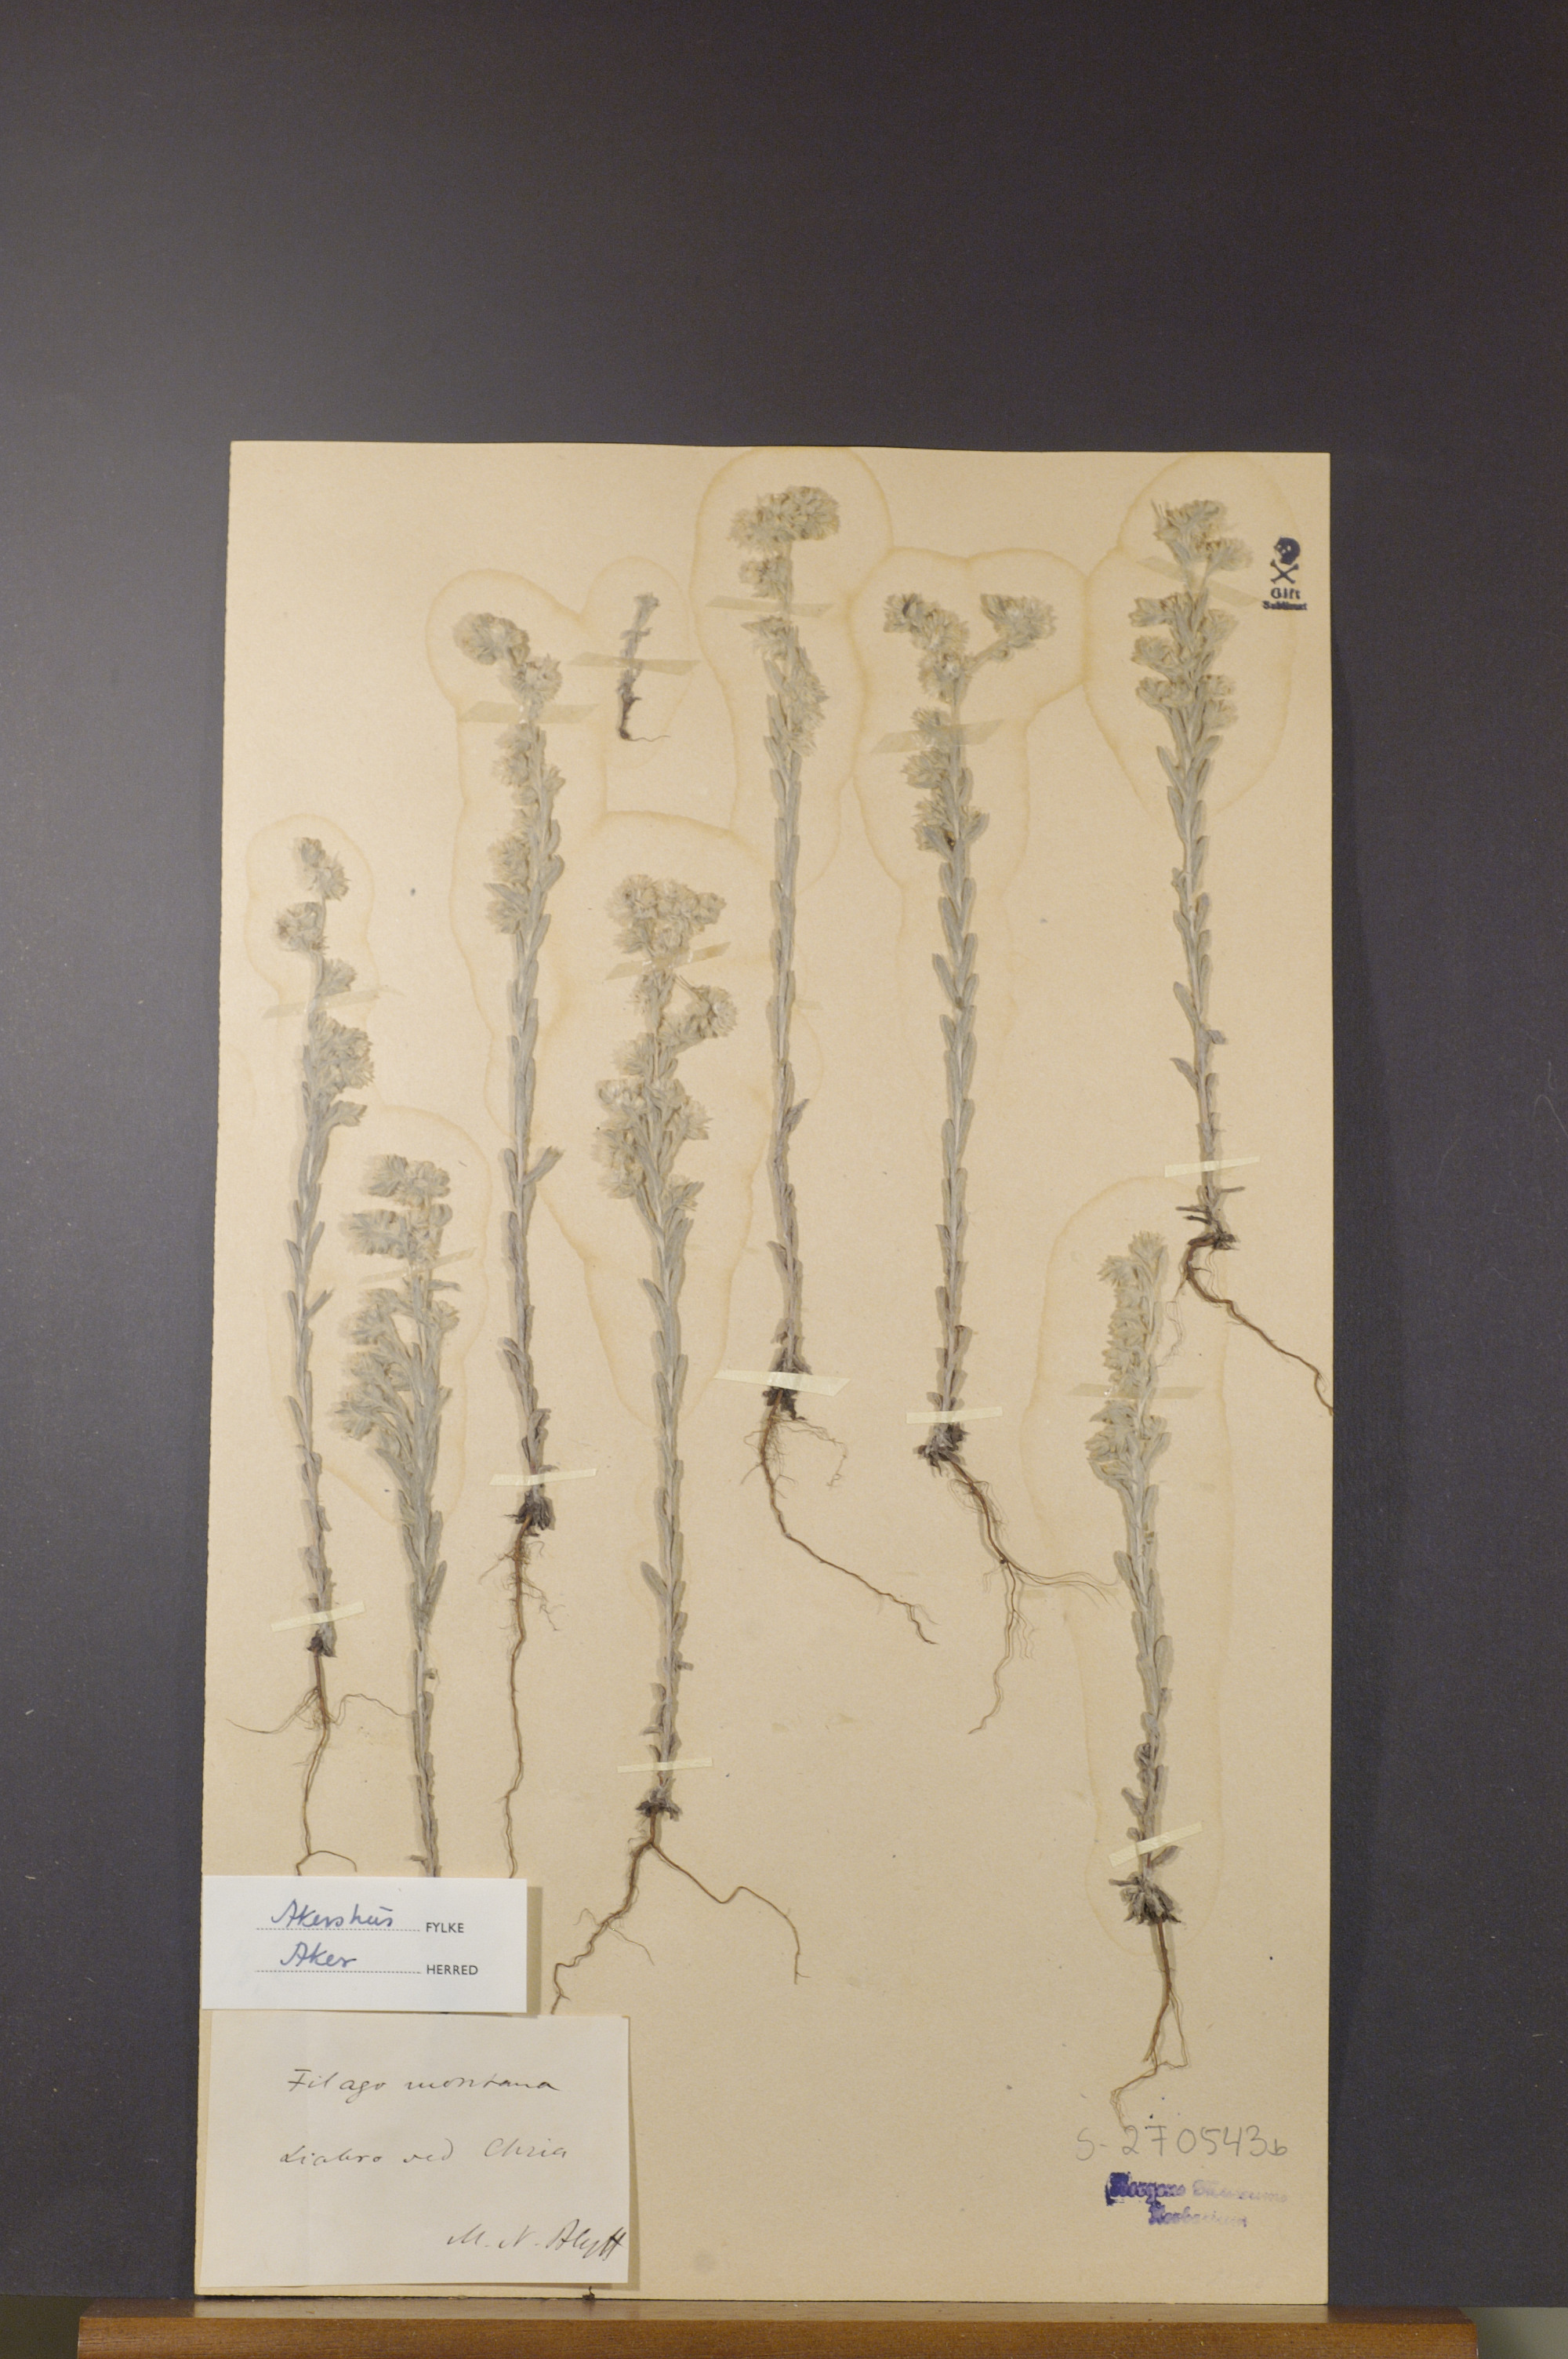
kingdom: Plantae
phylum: Tracheophyta
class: Magnoliopsida
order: Asterales
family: Asteraceae
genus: Filago
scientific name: Filago arvensis
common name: Field cudweed
